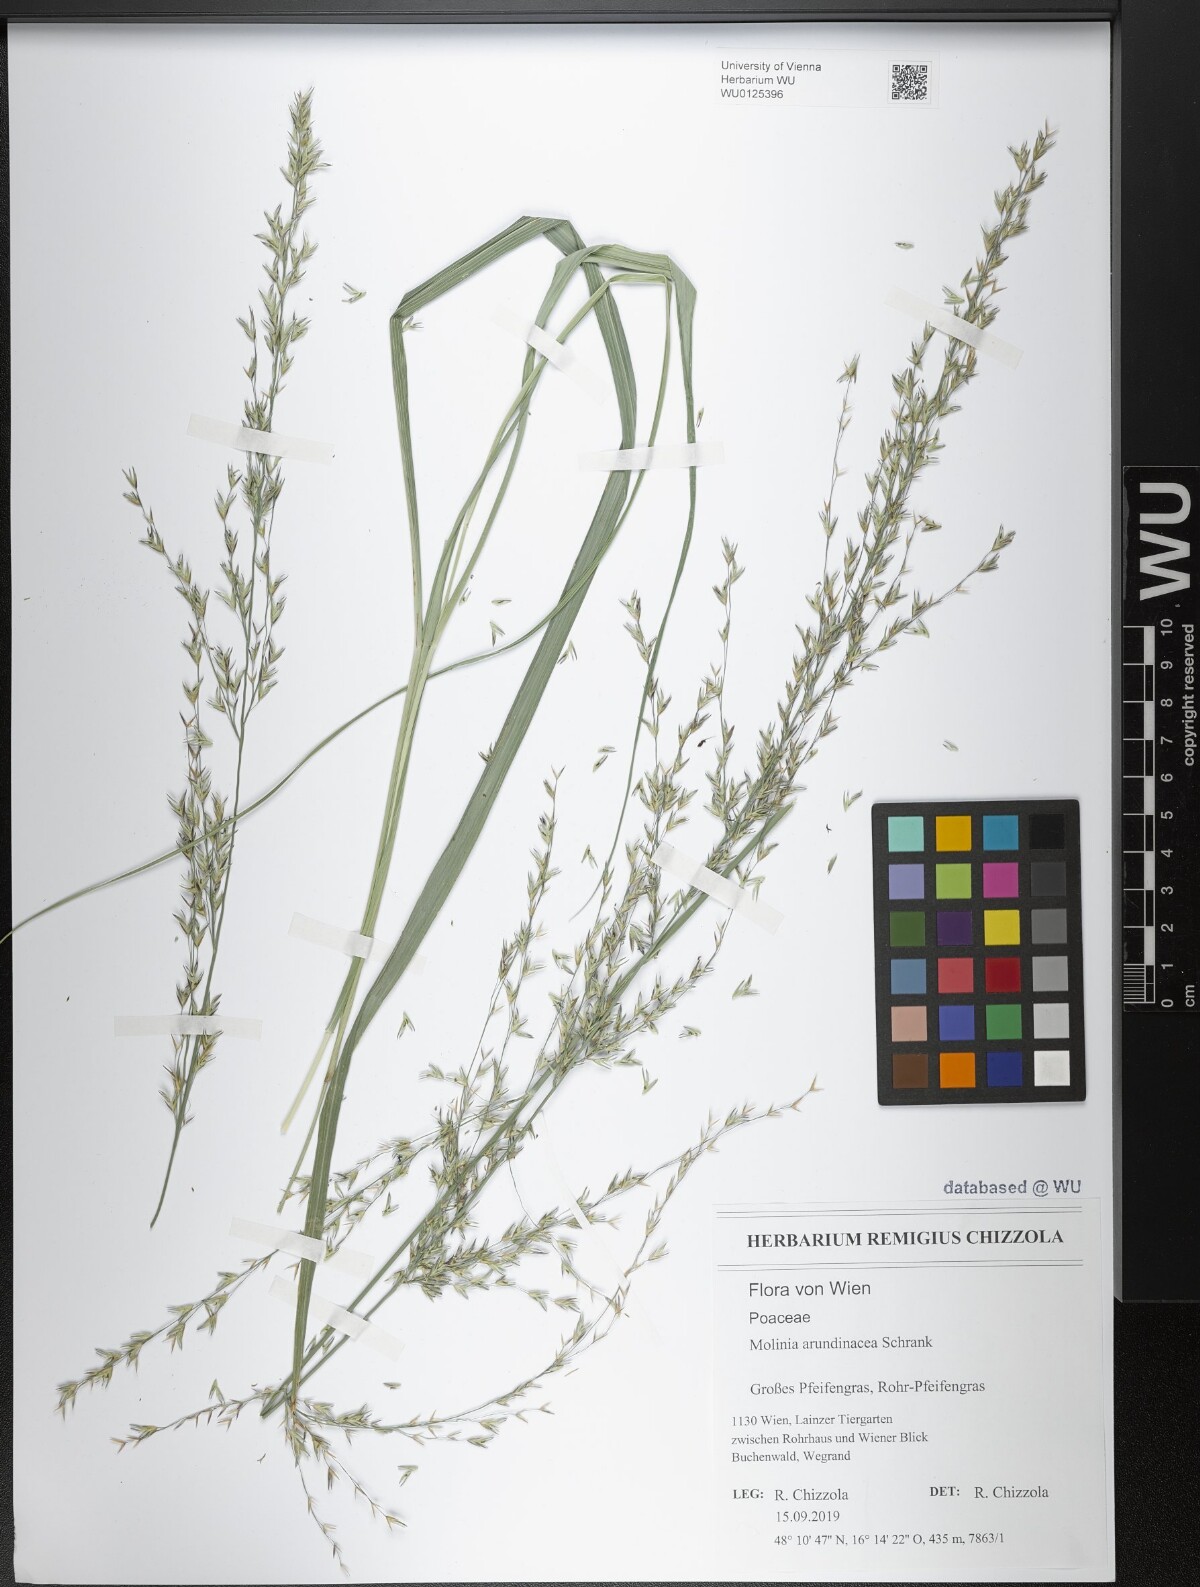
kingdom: Plantae
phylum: Tracheophyta
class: Liliopsida
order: Poales
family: Poaceae
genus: Molinia
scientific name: Molinia arundinacea
